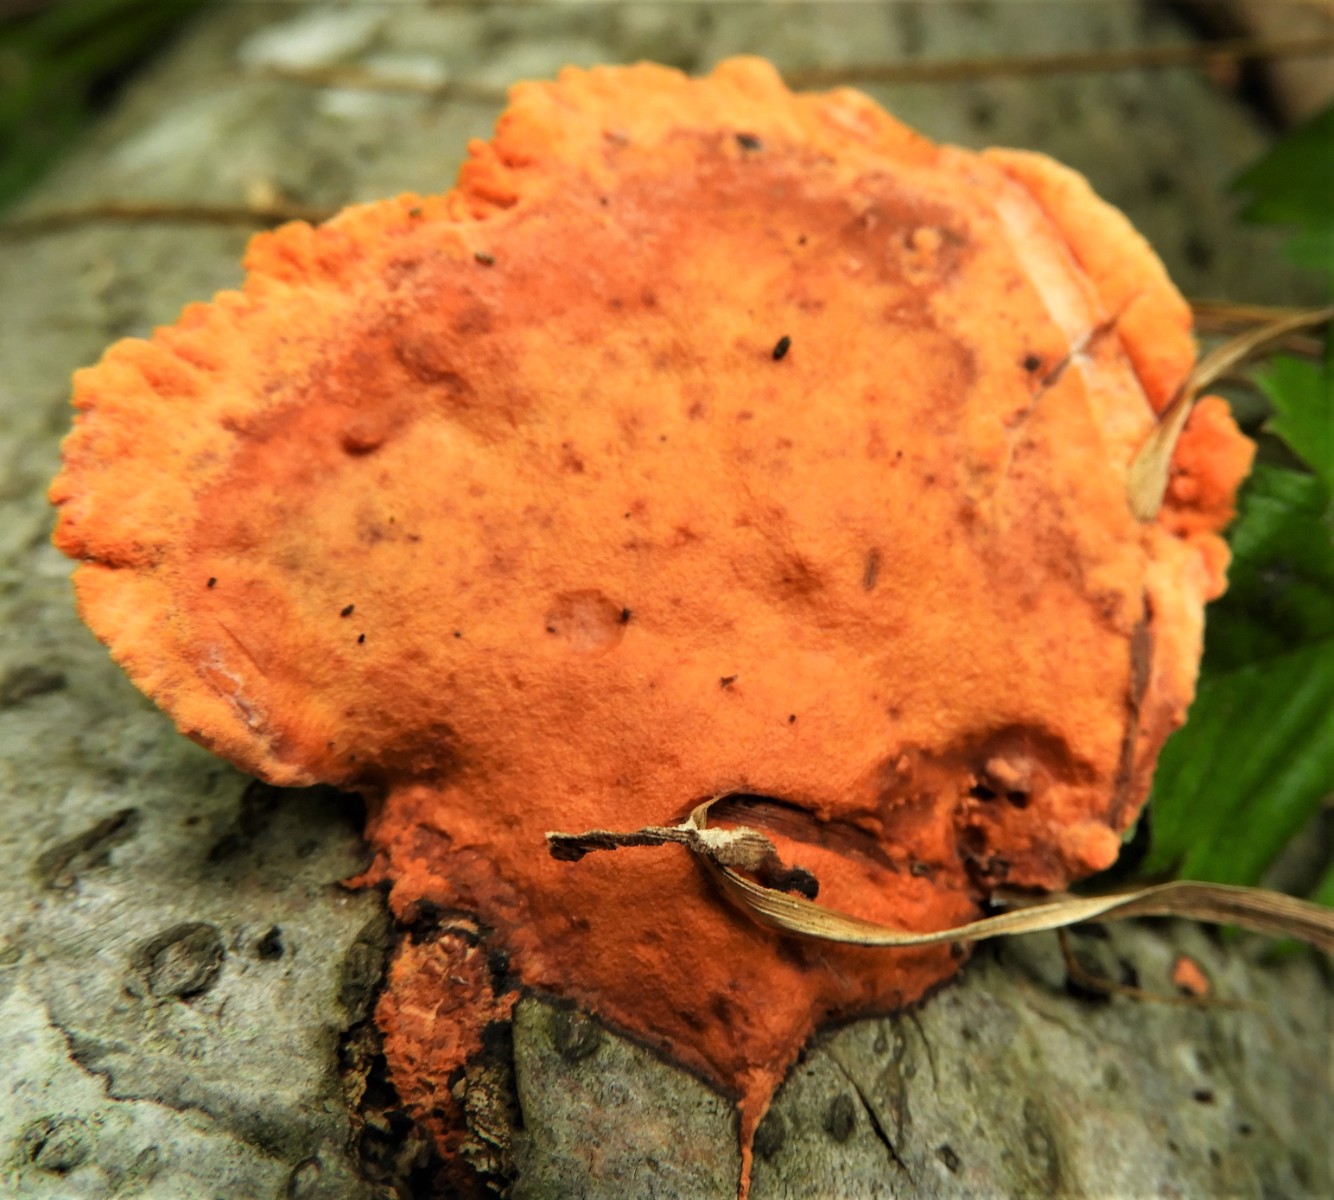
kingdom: Fungi
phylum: Basidiomycota
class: Agaricomycetes
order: Polyporales
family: Polyporaceae
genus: Trametes
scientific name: Trametes cinnabarina
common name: cinnoberporesvamp
